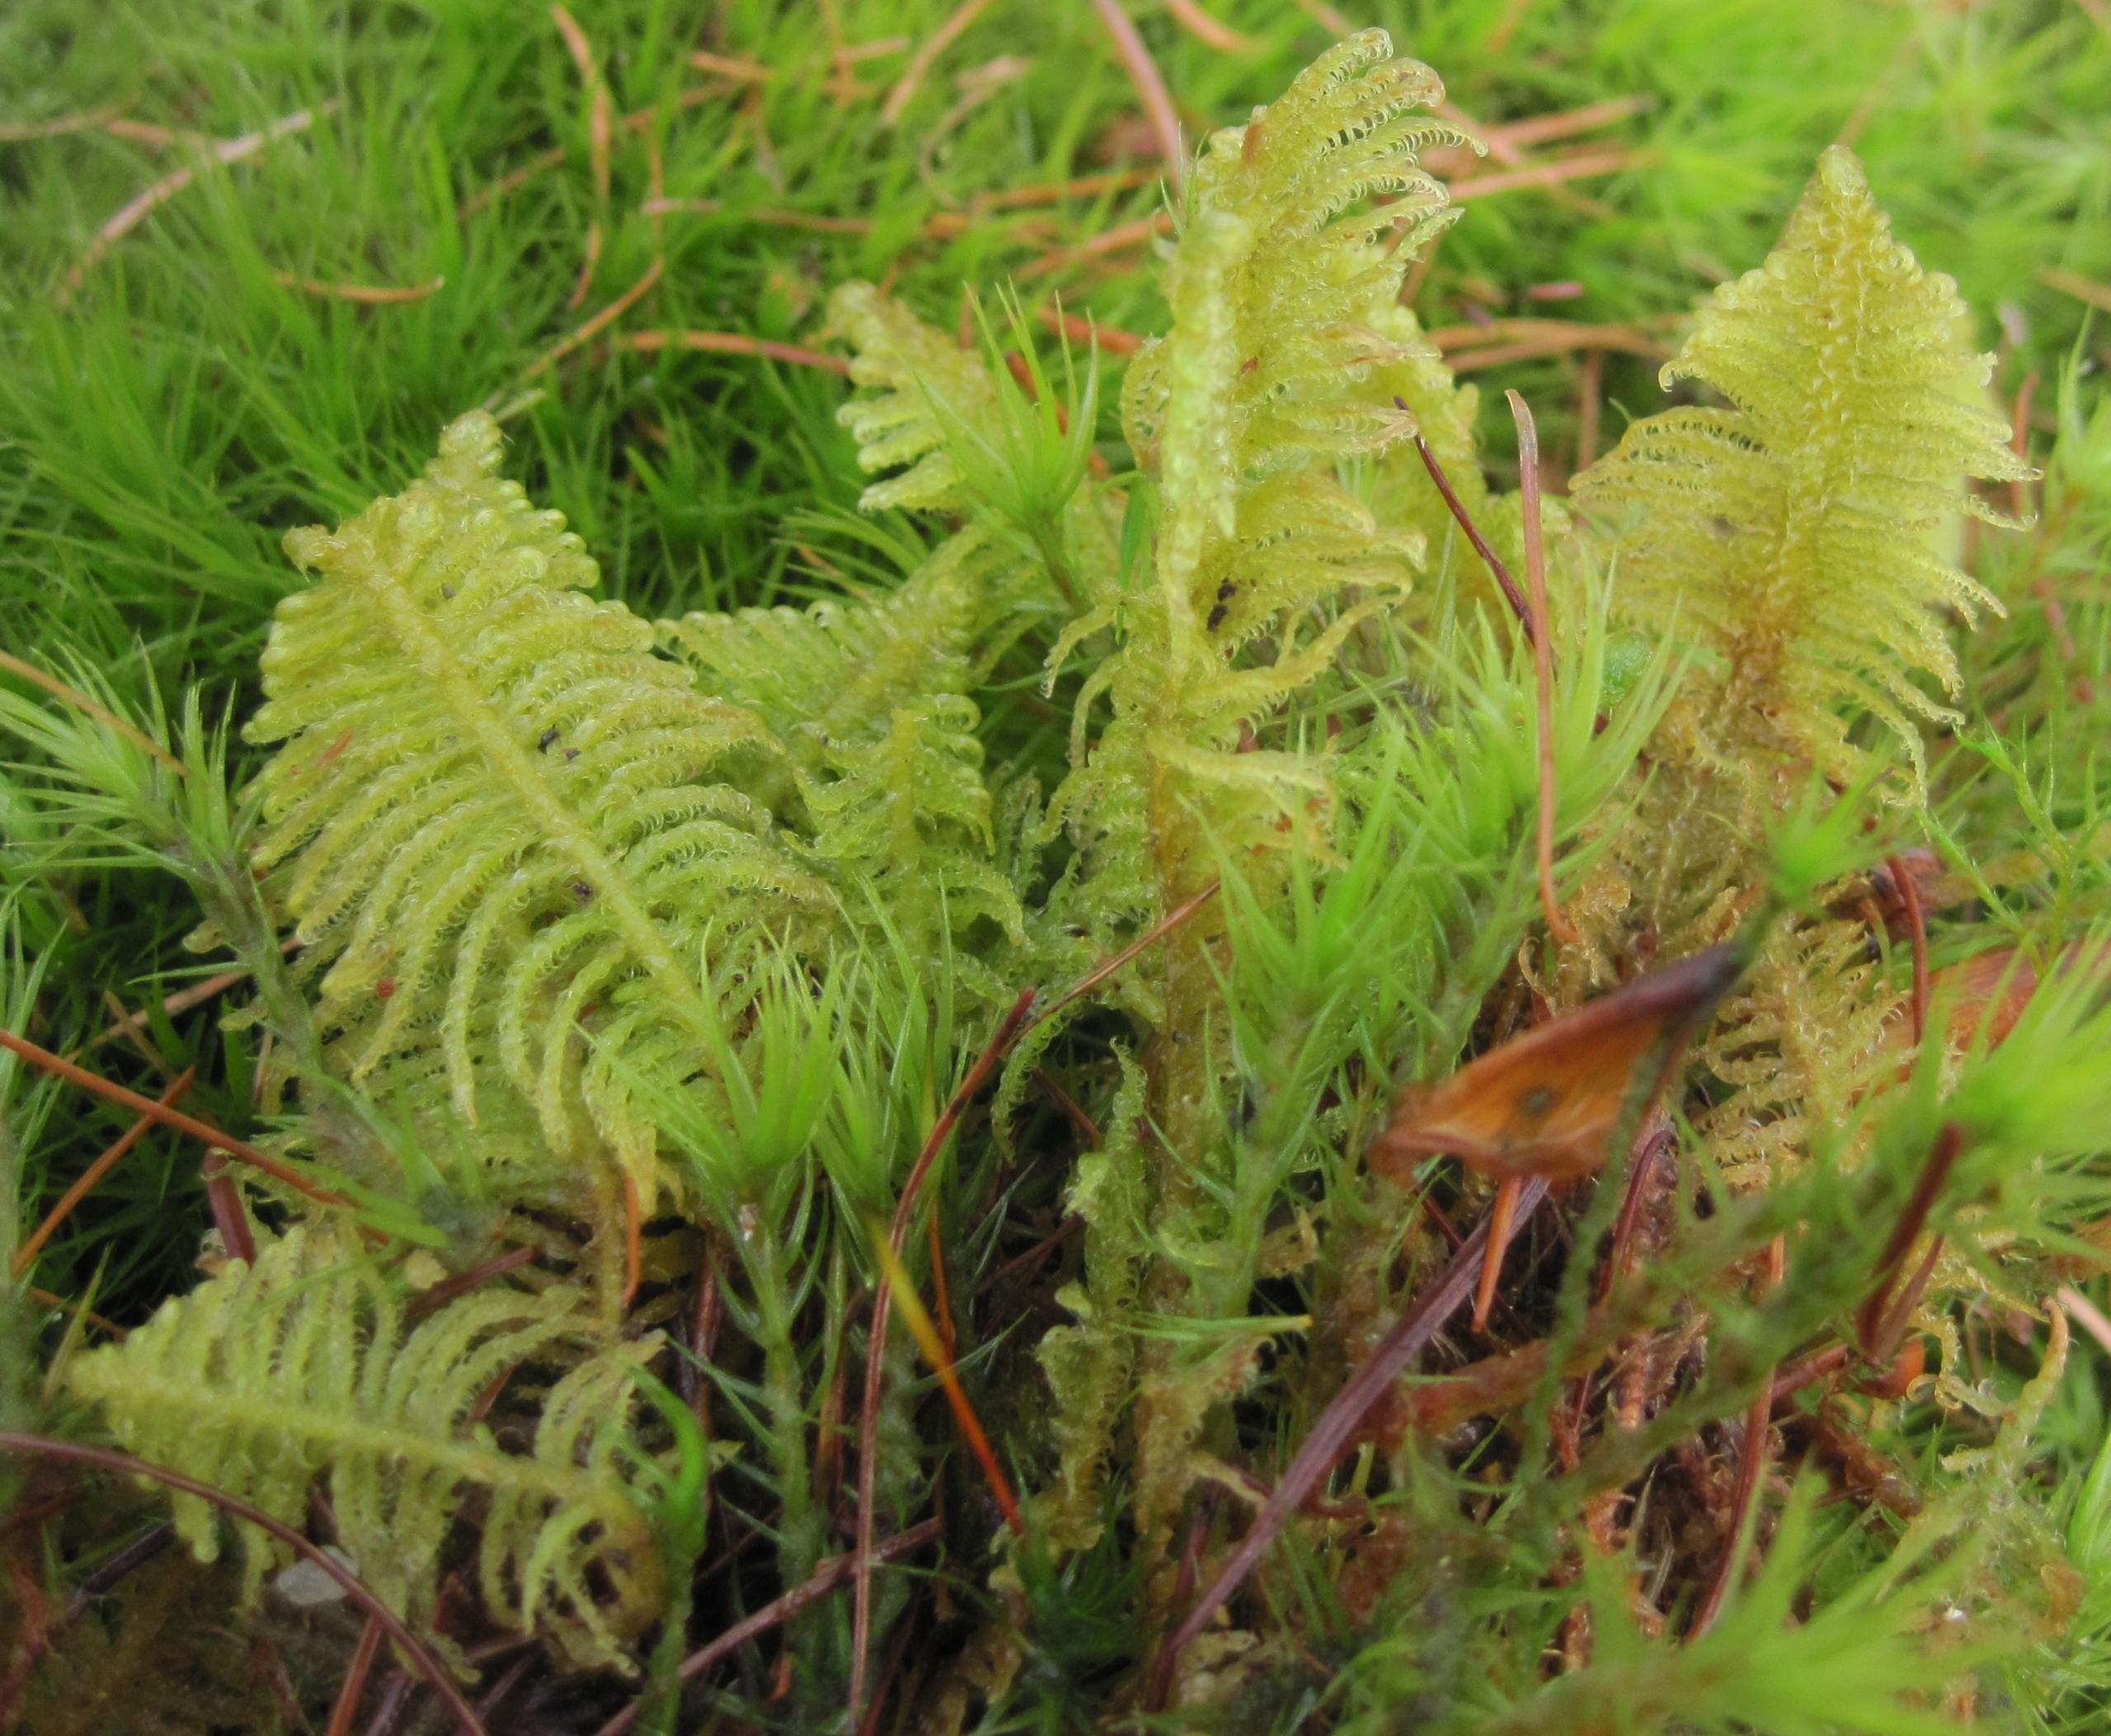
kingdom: Plantae
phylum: Bryophyta
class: Bryopsida
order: Hypnales
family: Pylaisiaceae
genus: Ptilium
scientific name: Ptilium crista-castrensis
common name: Fjer-kammos
